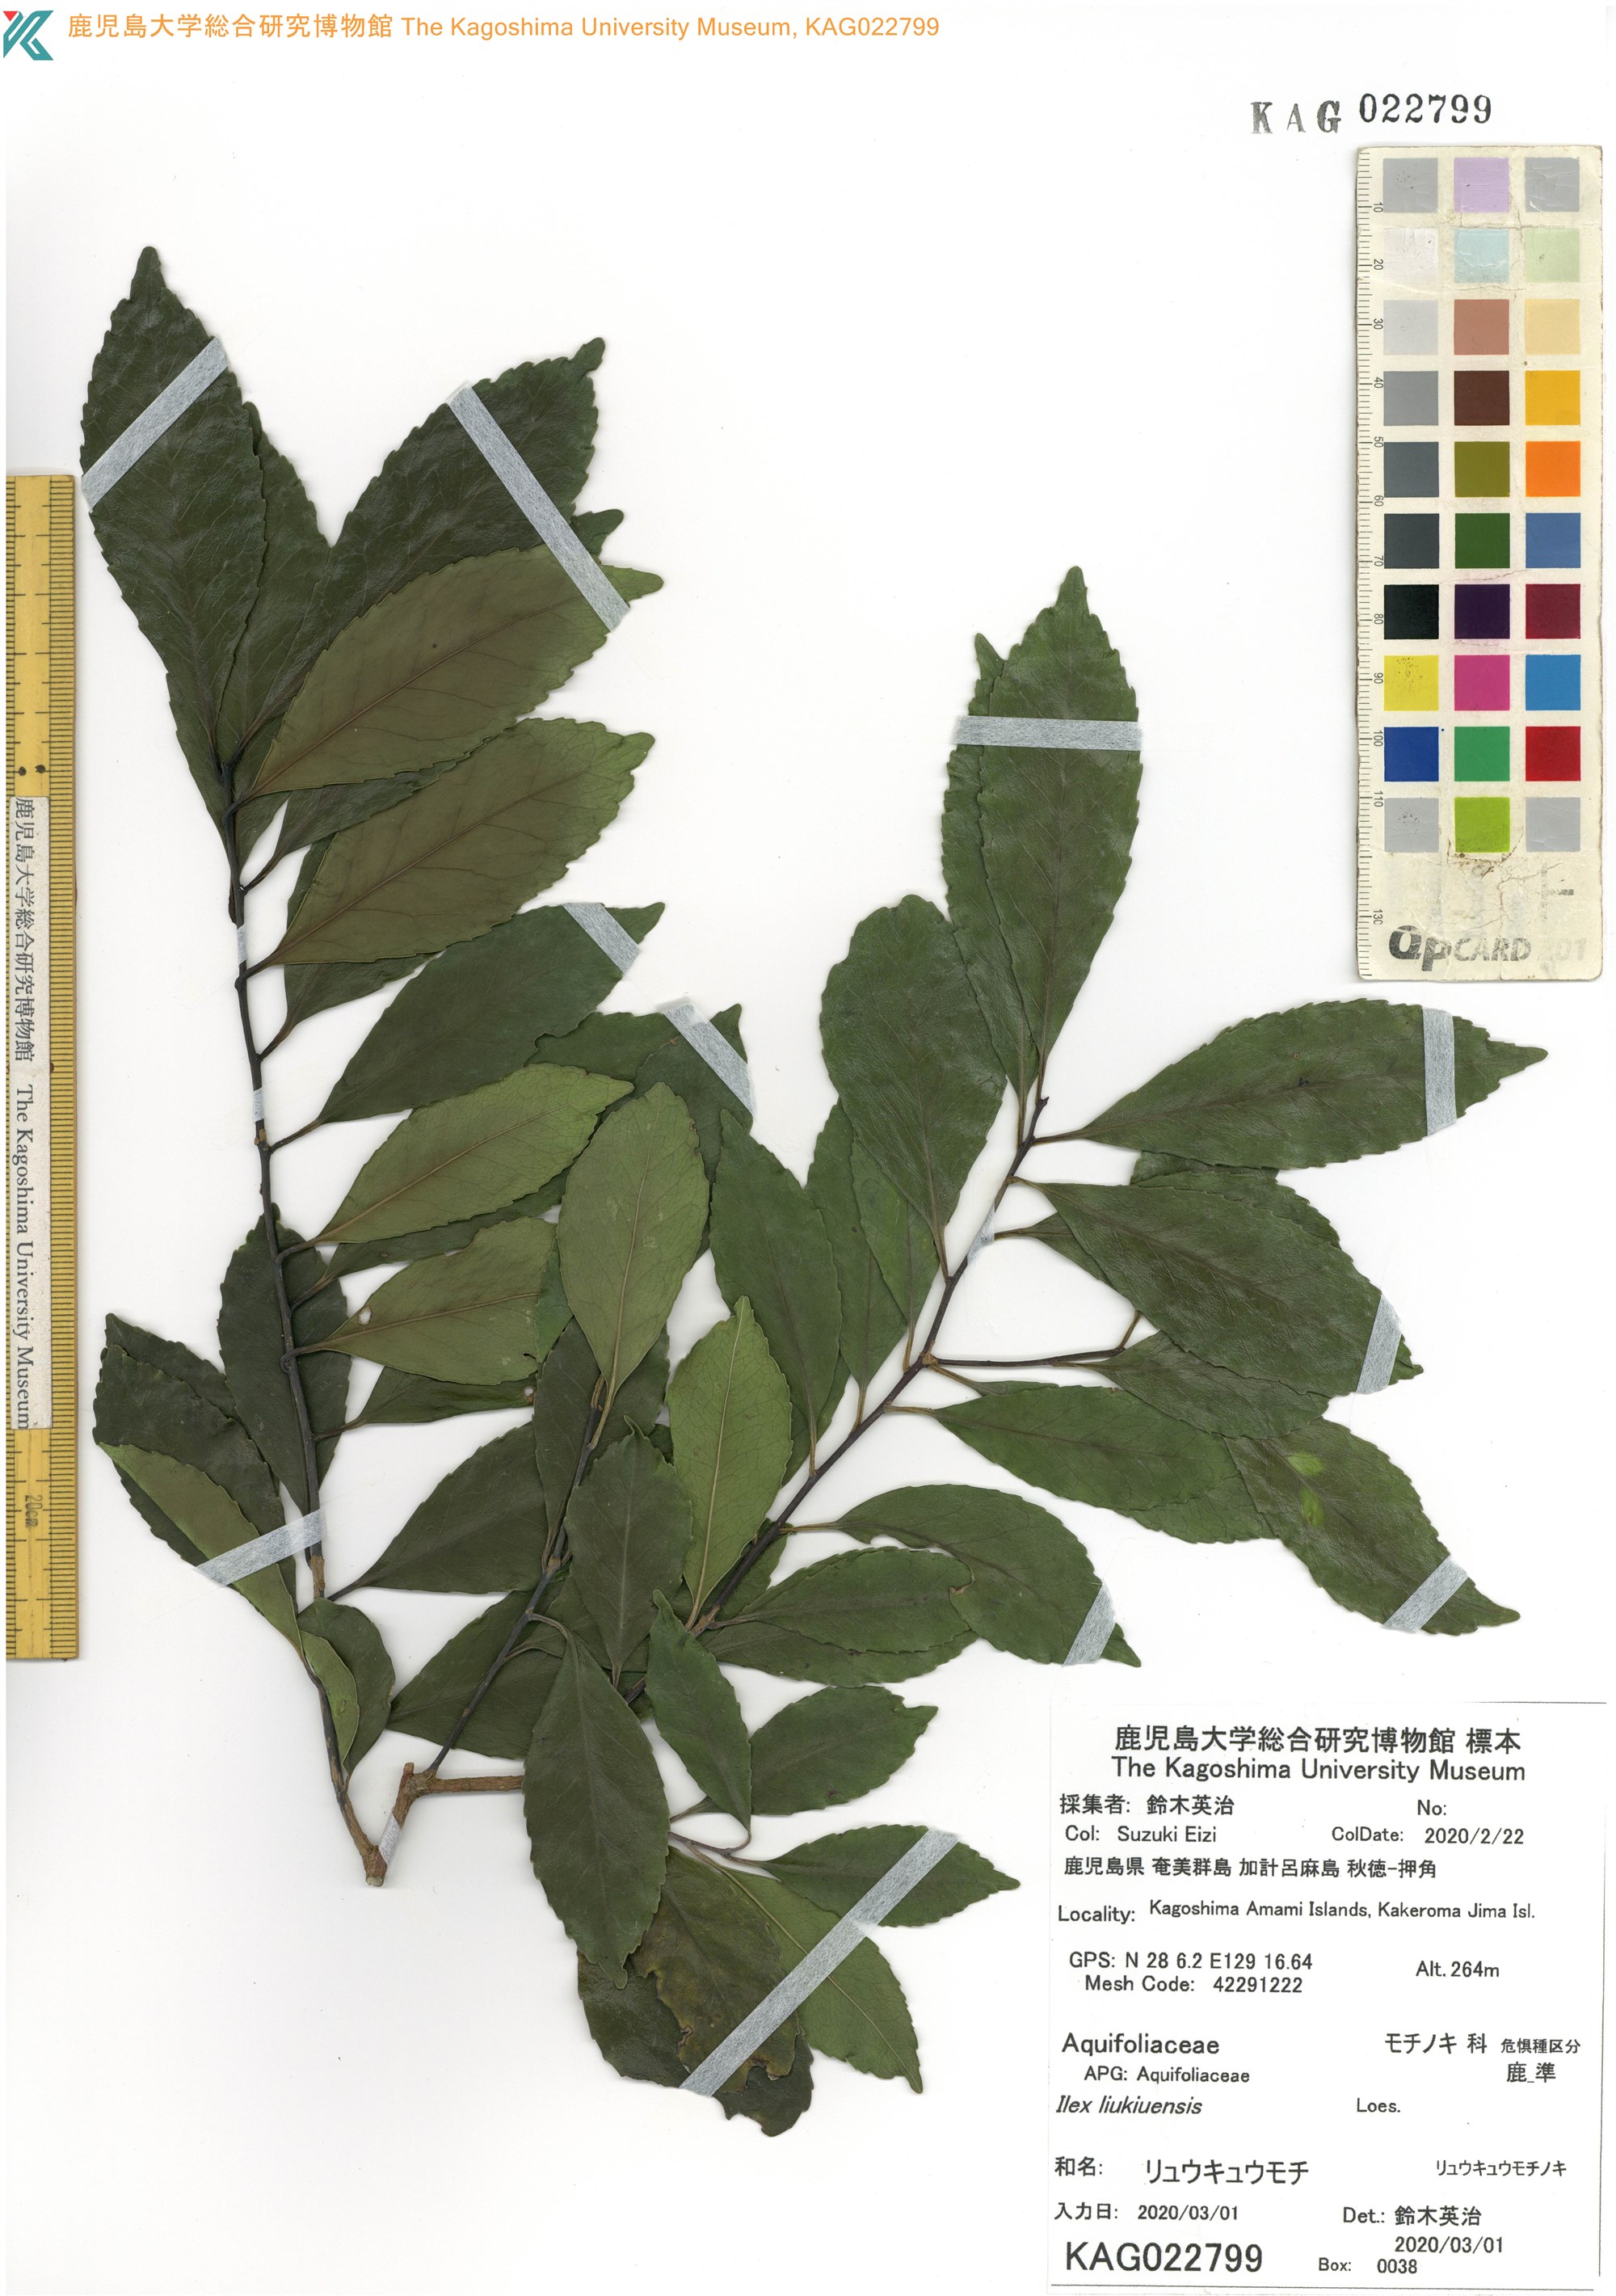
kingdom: Plantae
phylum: Tracheophyta
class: Magnoliopsida
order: Aquifoliales
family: Aquifoliaceae
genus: Ilex
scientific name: Ilex liukiuensis
